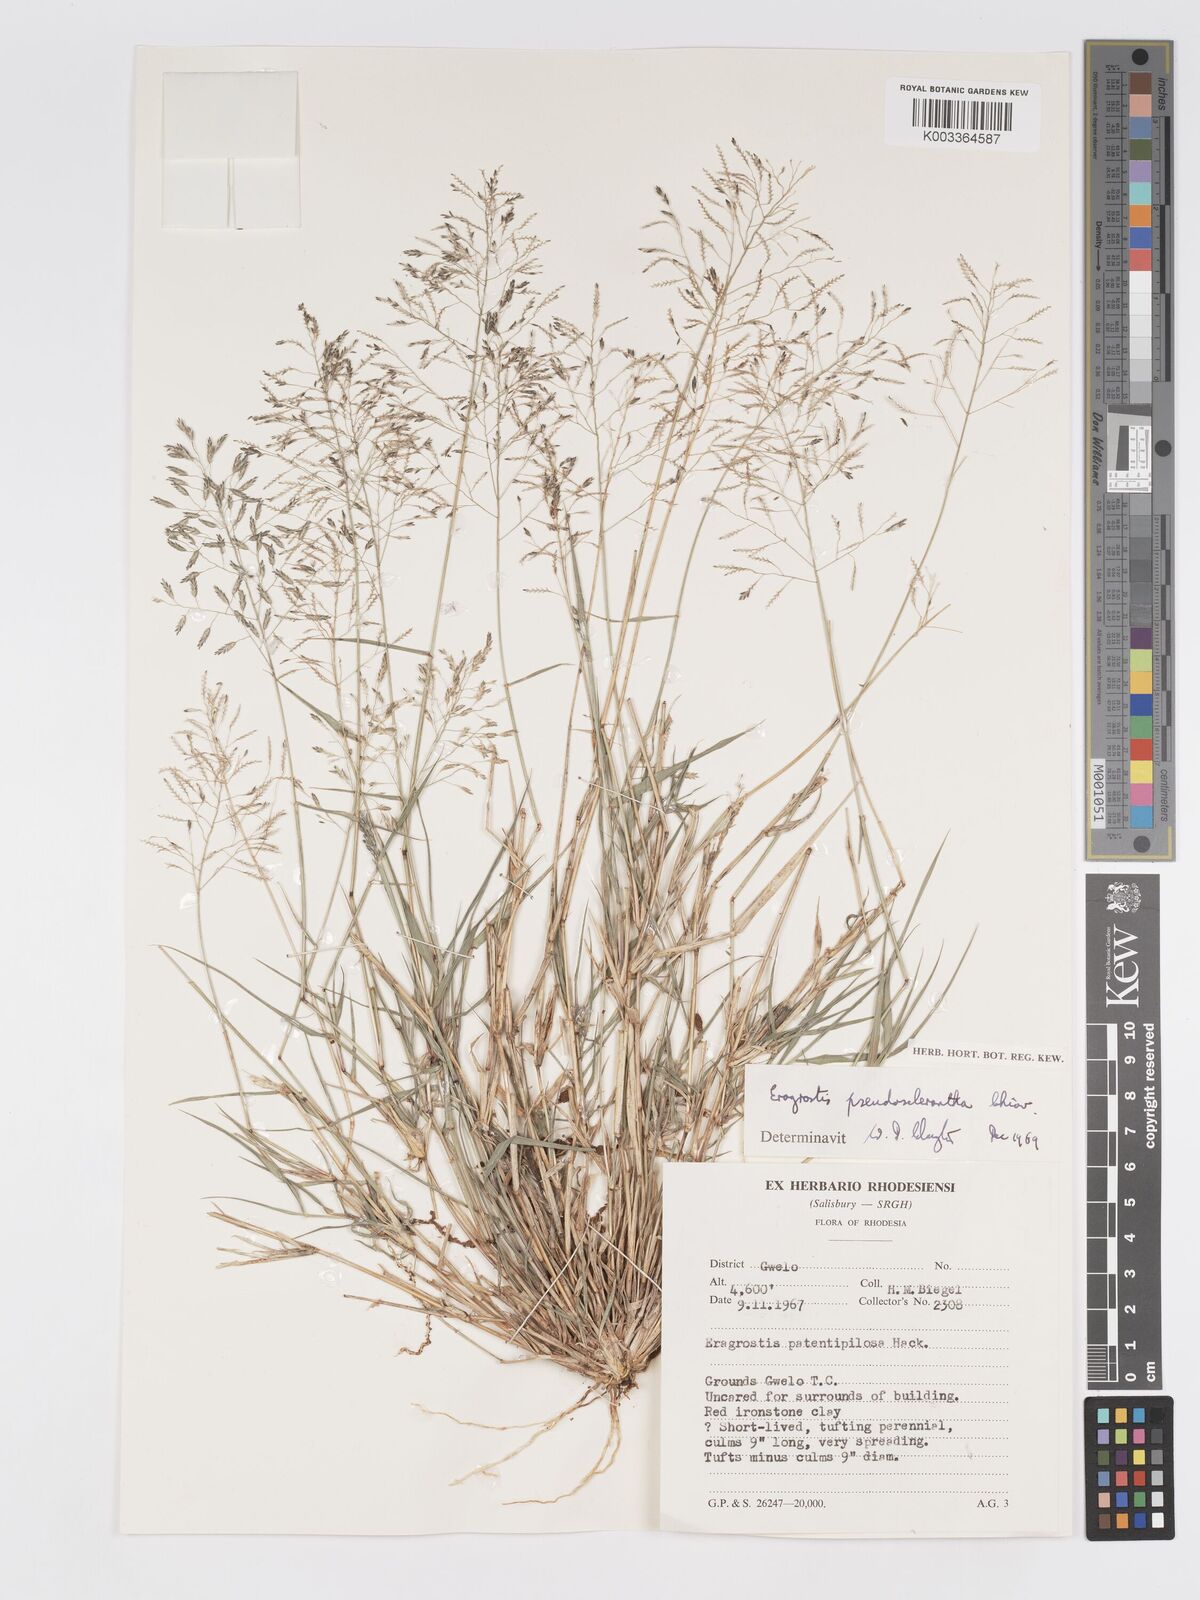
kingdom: Plantae
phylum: Tracheophyta
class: Liliopsida
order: Poales
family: Poaceae
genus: Eragrostis
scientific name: Eragrostis patentipilosa
